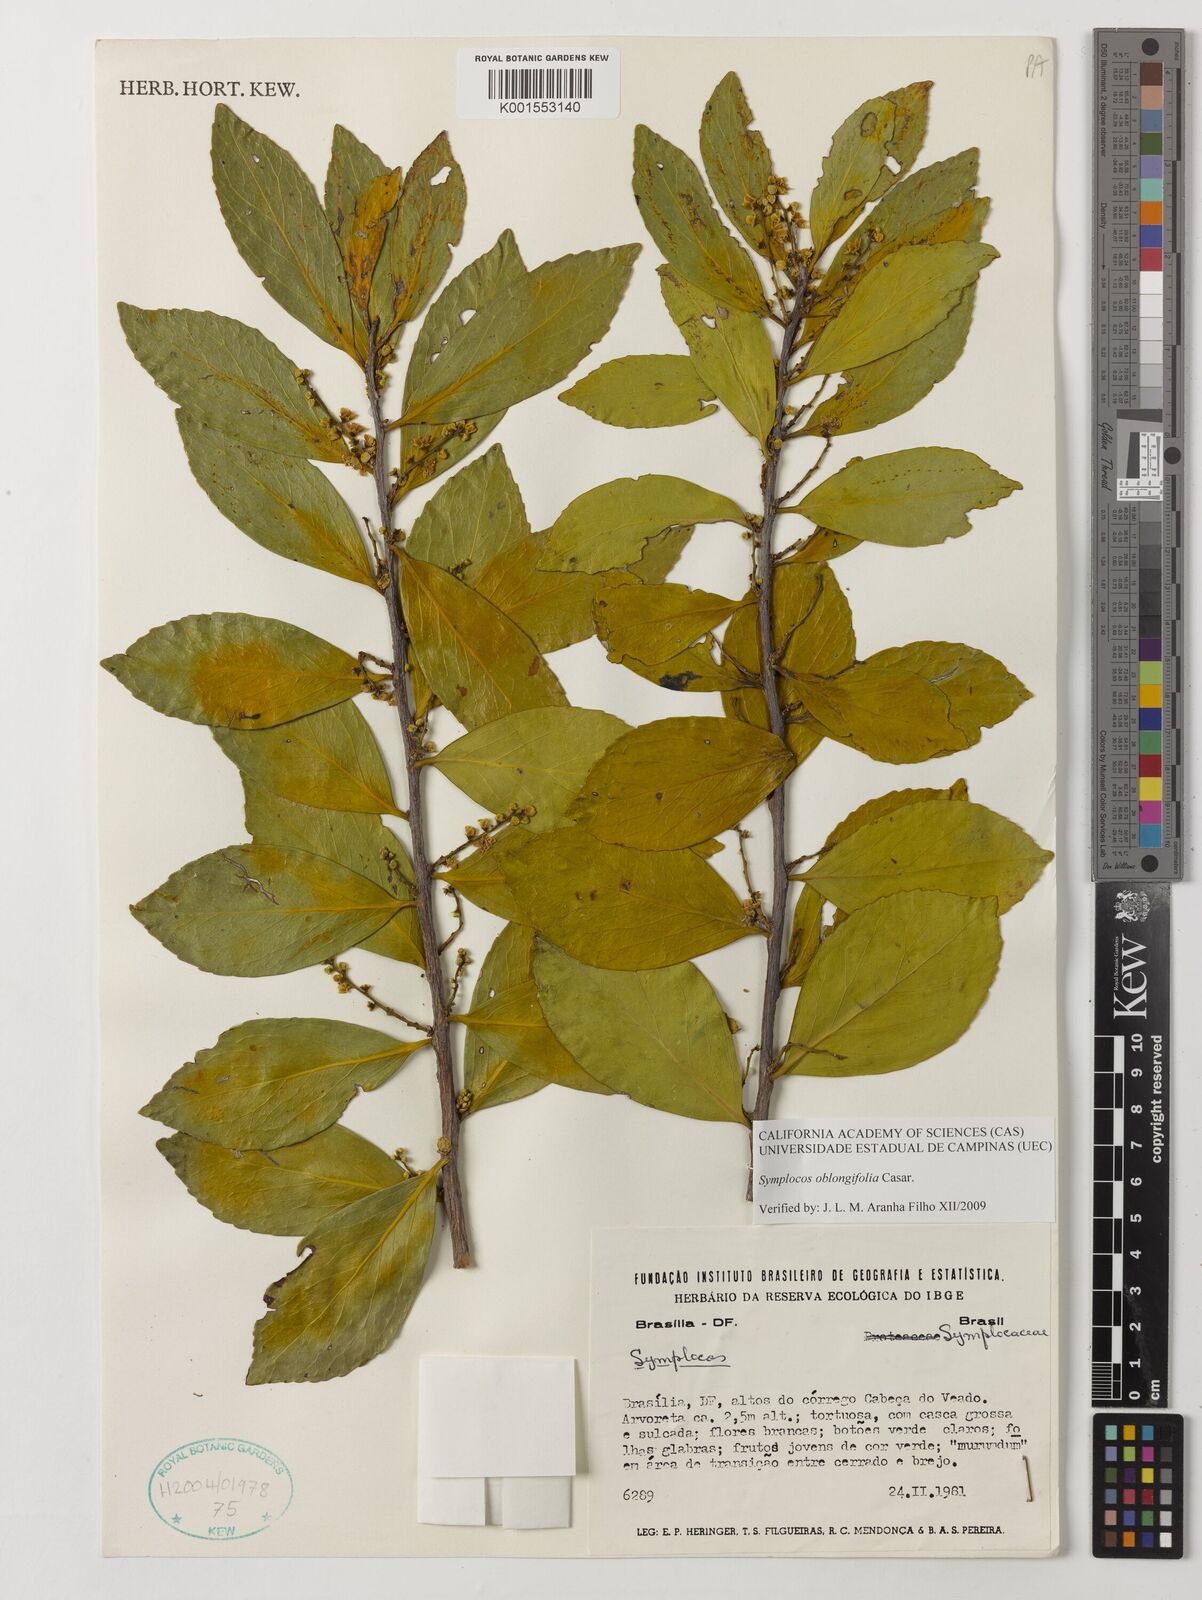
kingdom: Plantae
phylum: Tracheophyta
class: Magnoliopsida
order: Ericales
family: Symplocaceae
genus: Symplocos
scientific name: Symplocos oblongifolia
